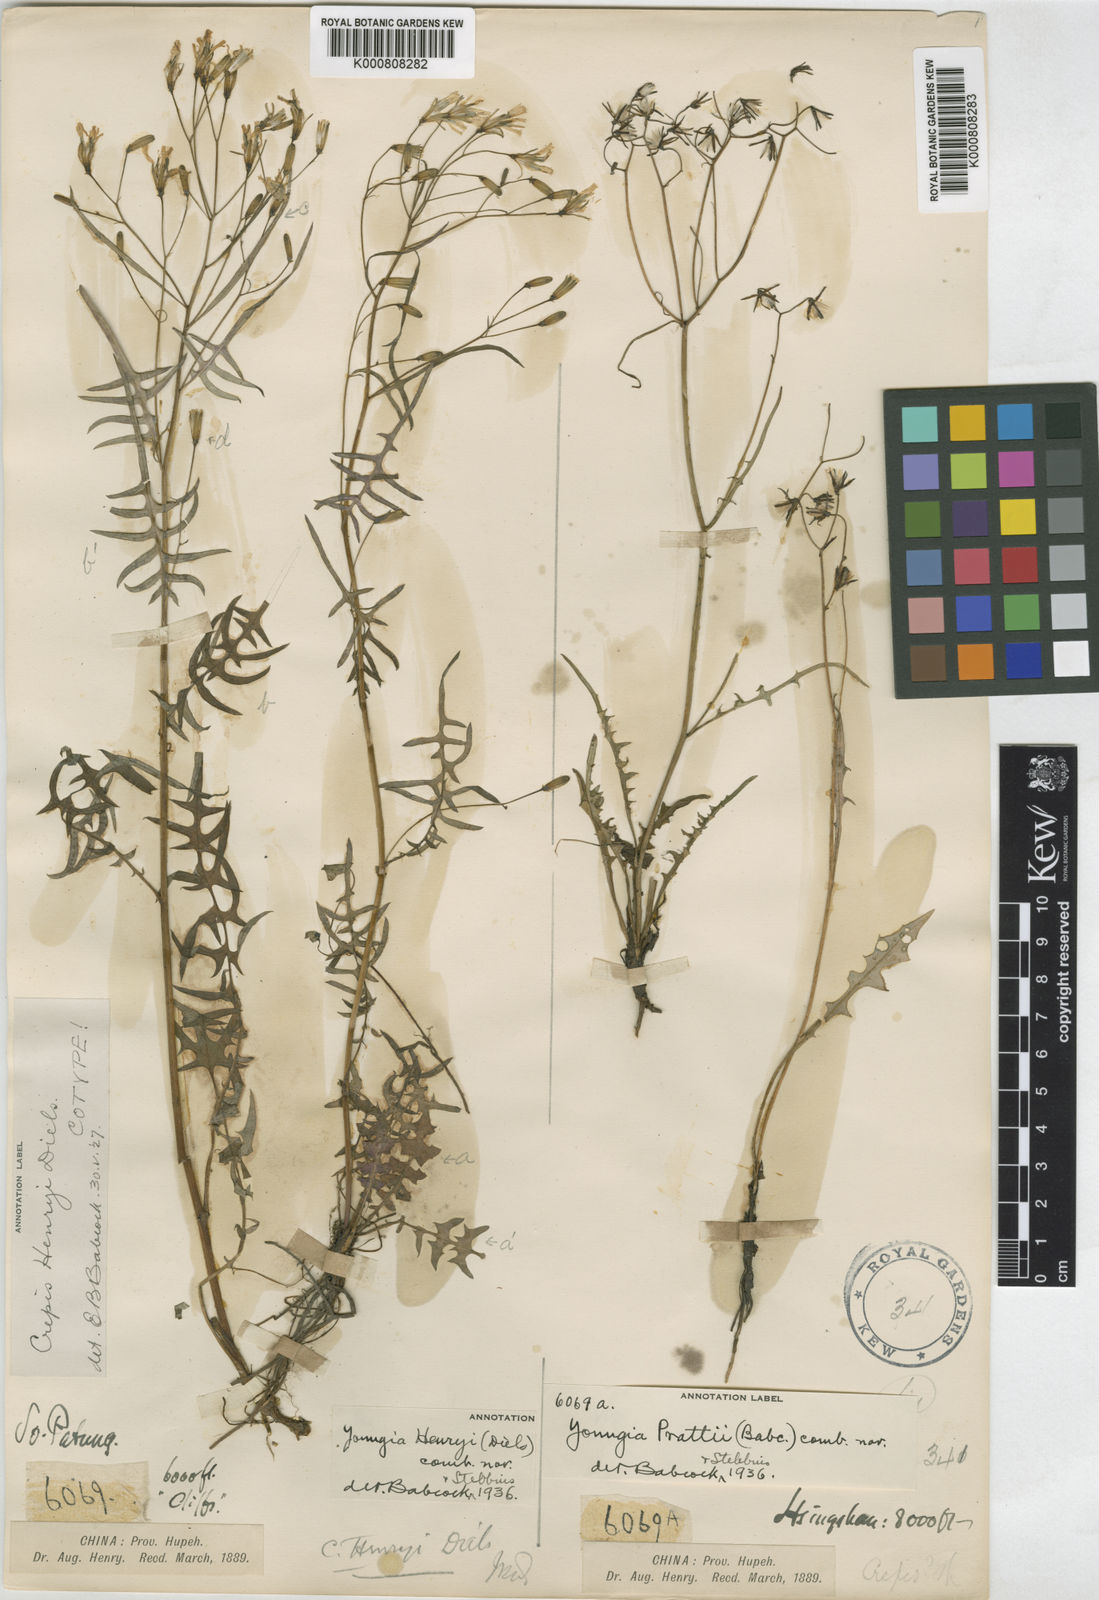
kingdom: Plantae
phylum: Tracheophyta
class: Magnoliopsida
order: Asterales
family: Asteraceae
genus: Youngia
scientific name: Youngia henryi
